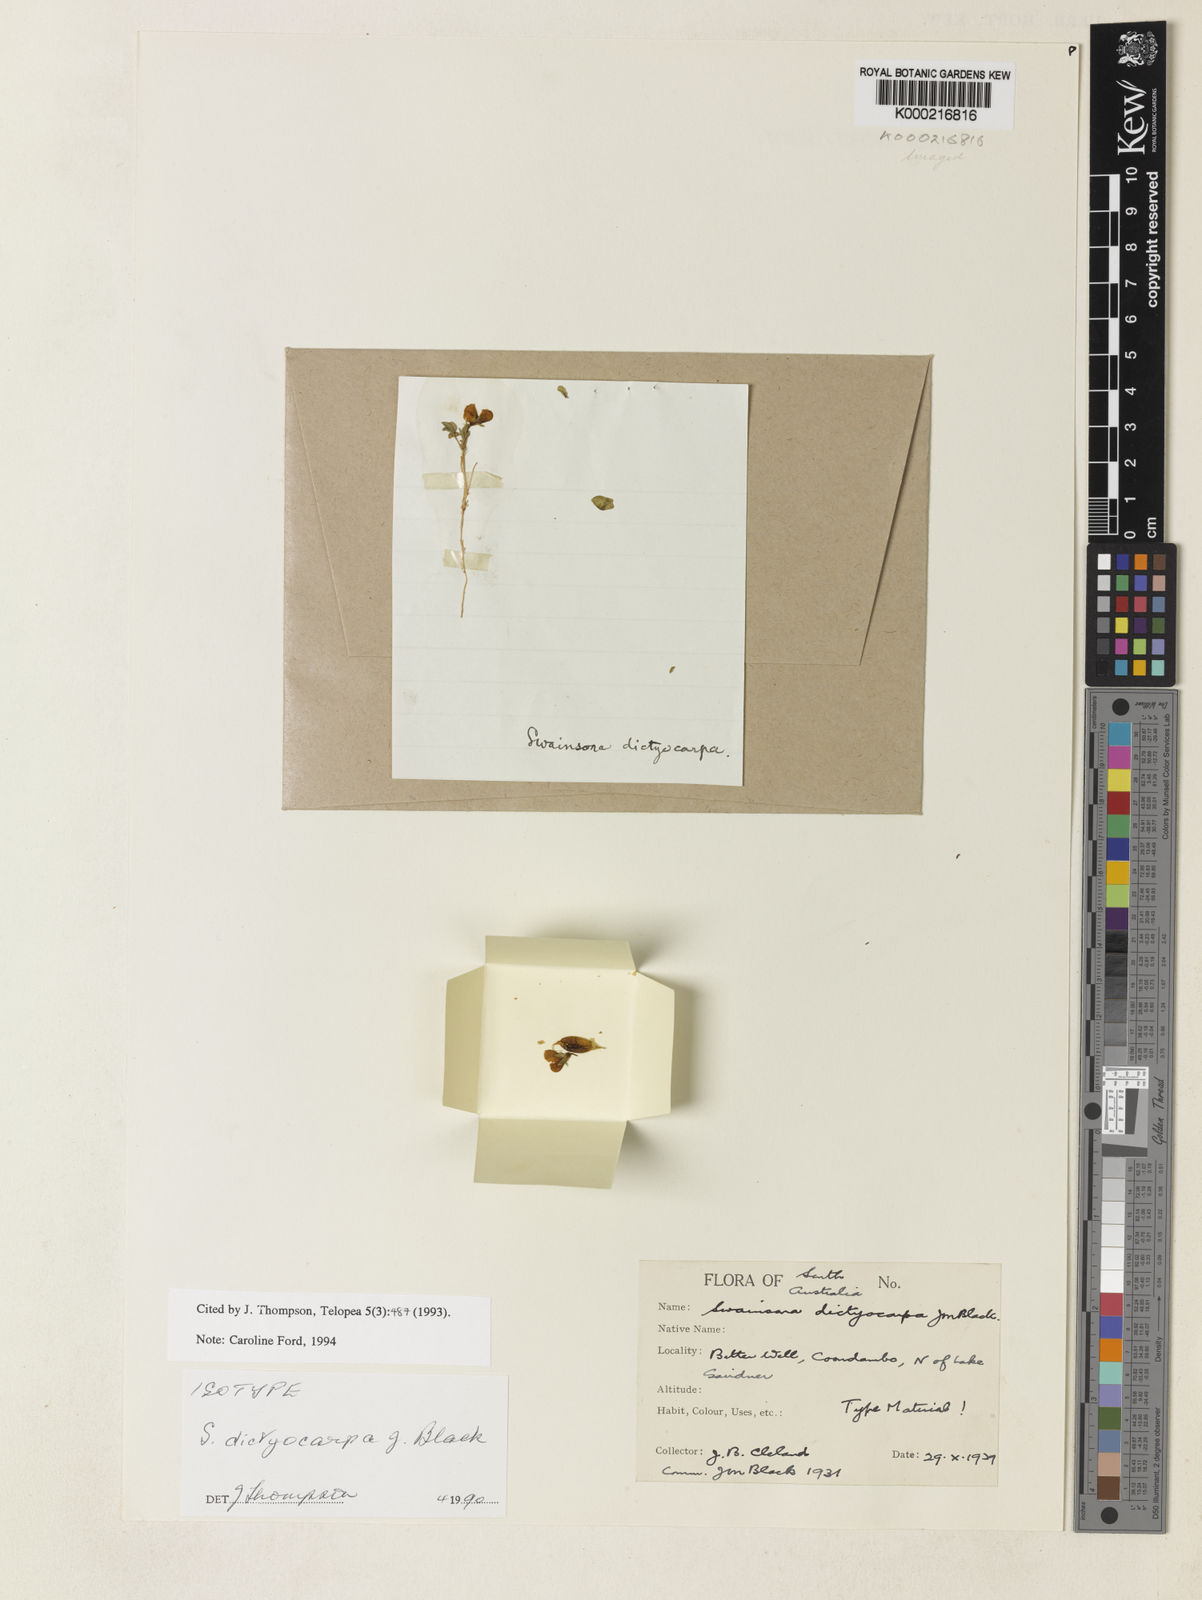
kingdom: Plantae
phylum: Tracheophyta
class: Magnoliopsida
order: Fabales
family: Fabaceae
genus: Swainsona
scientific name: Swainsona dictyocarpa
